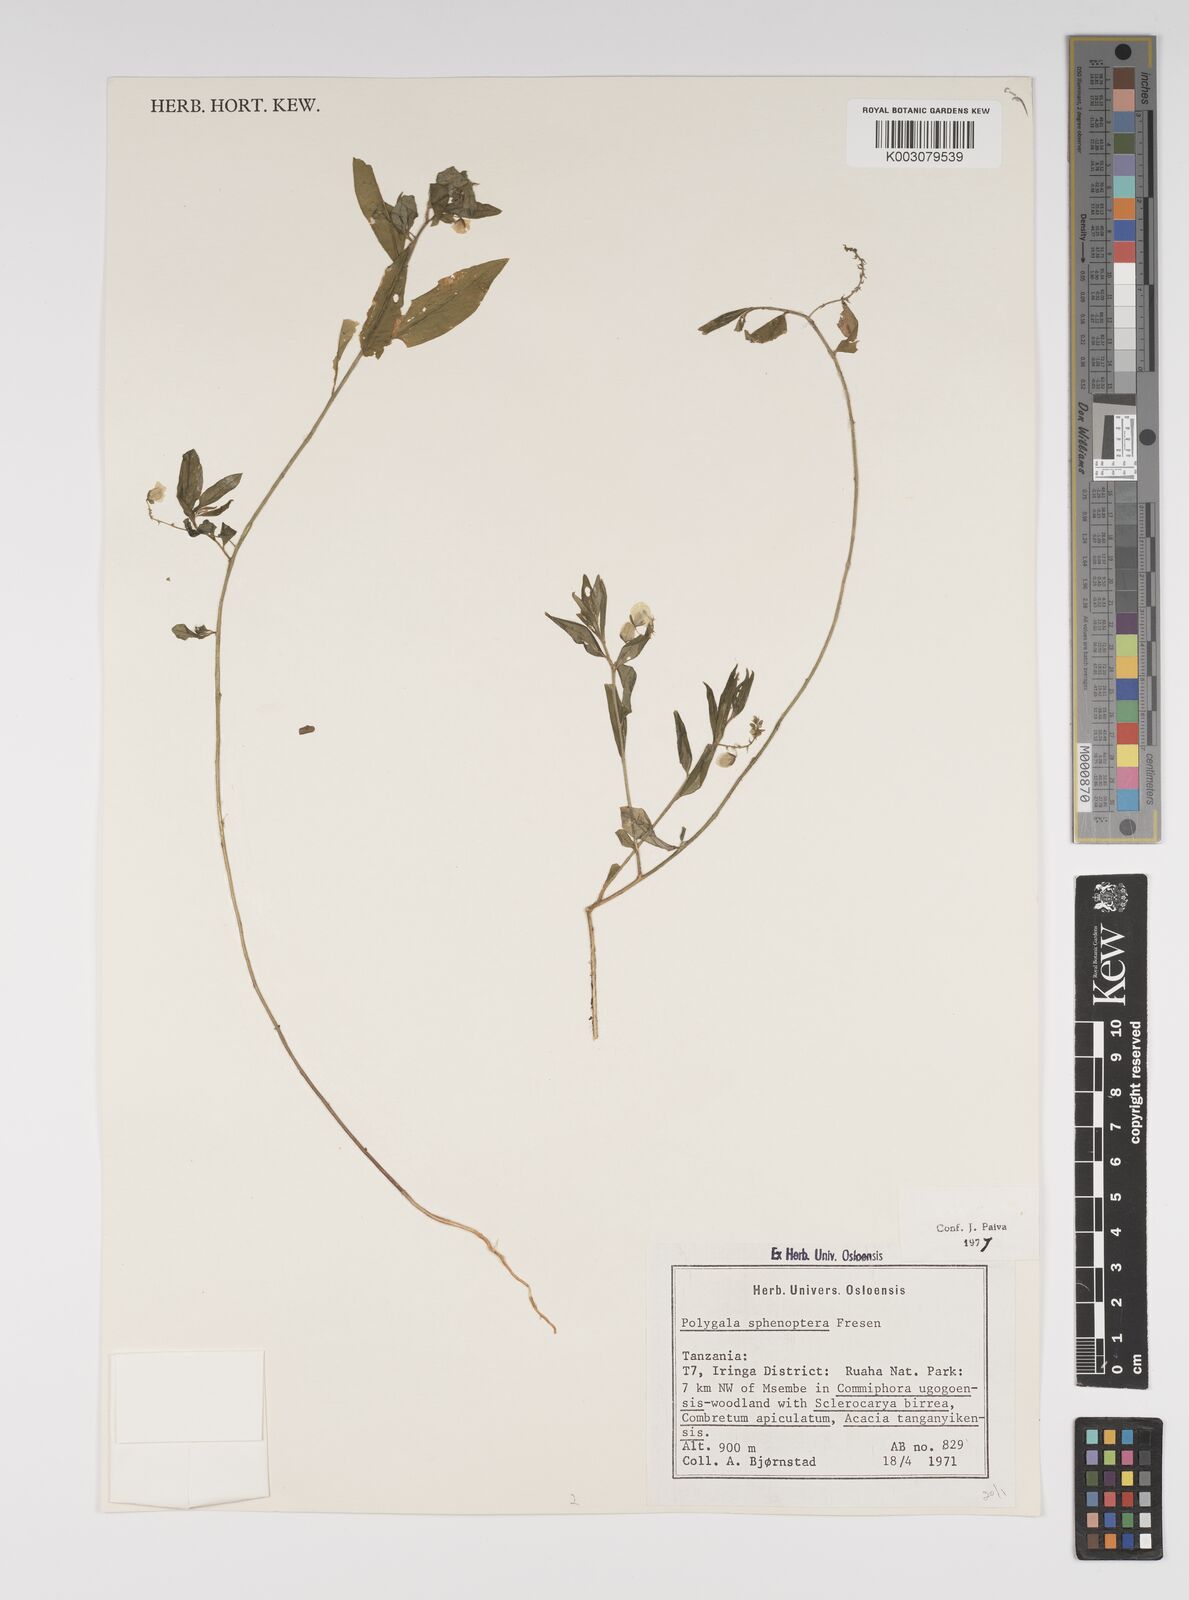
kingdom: Plantae
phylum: Tracheophyta
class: Magnoliopsida
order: Fabales
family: Polygalaceae
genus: Polygala
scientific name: Polygala sphenoptera
